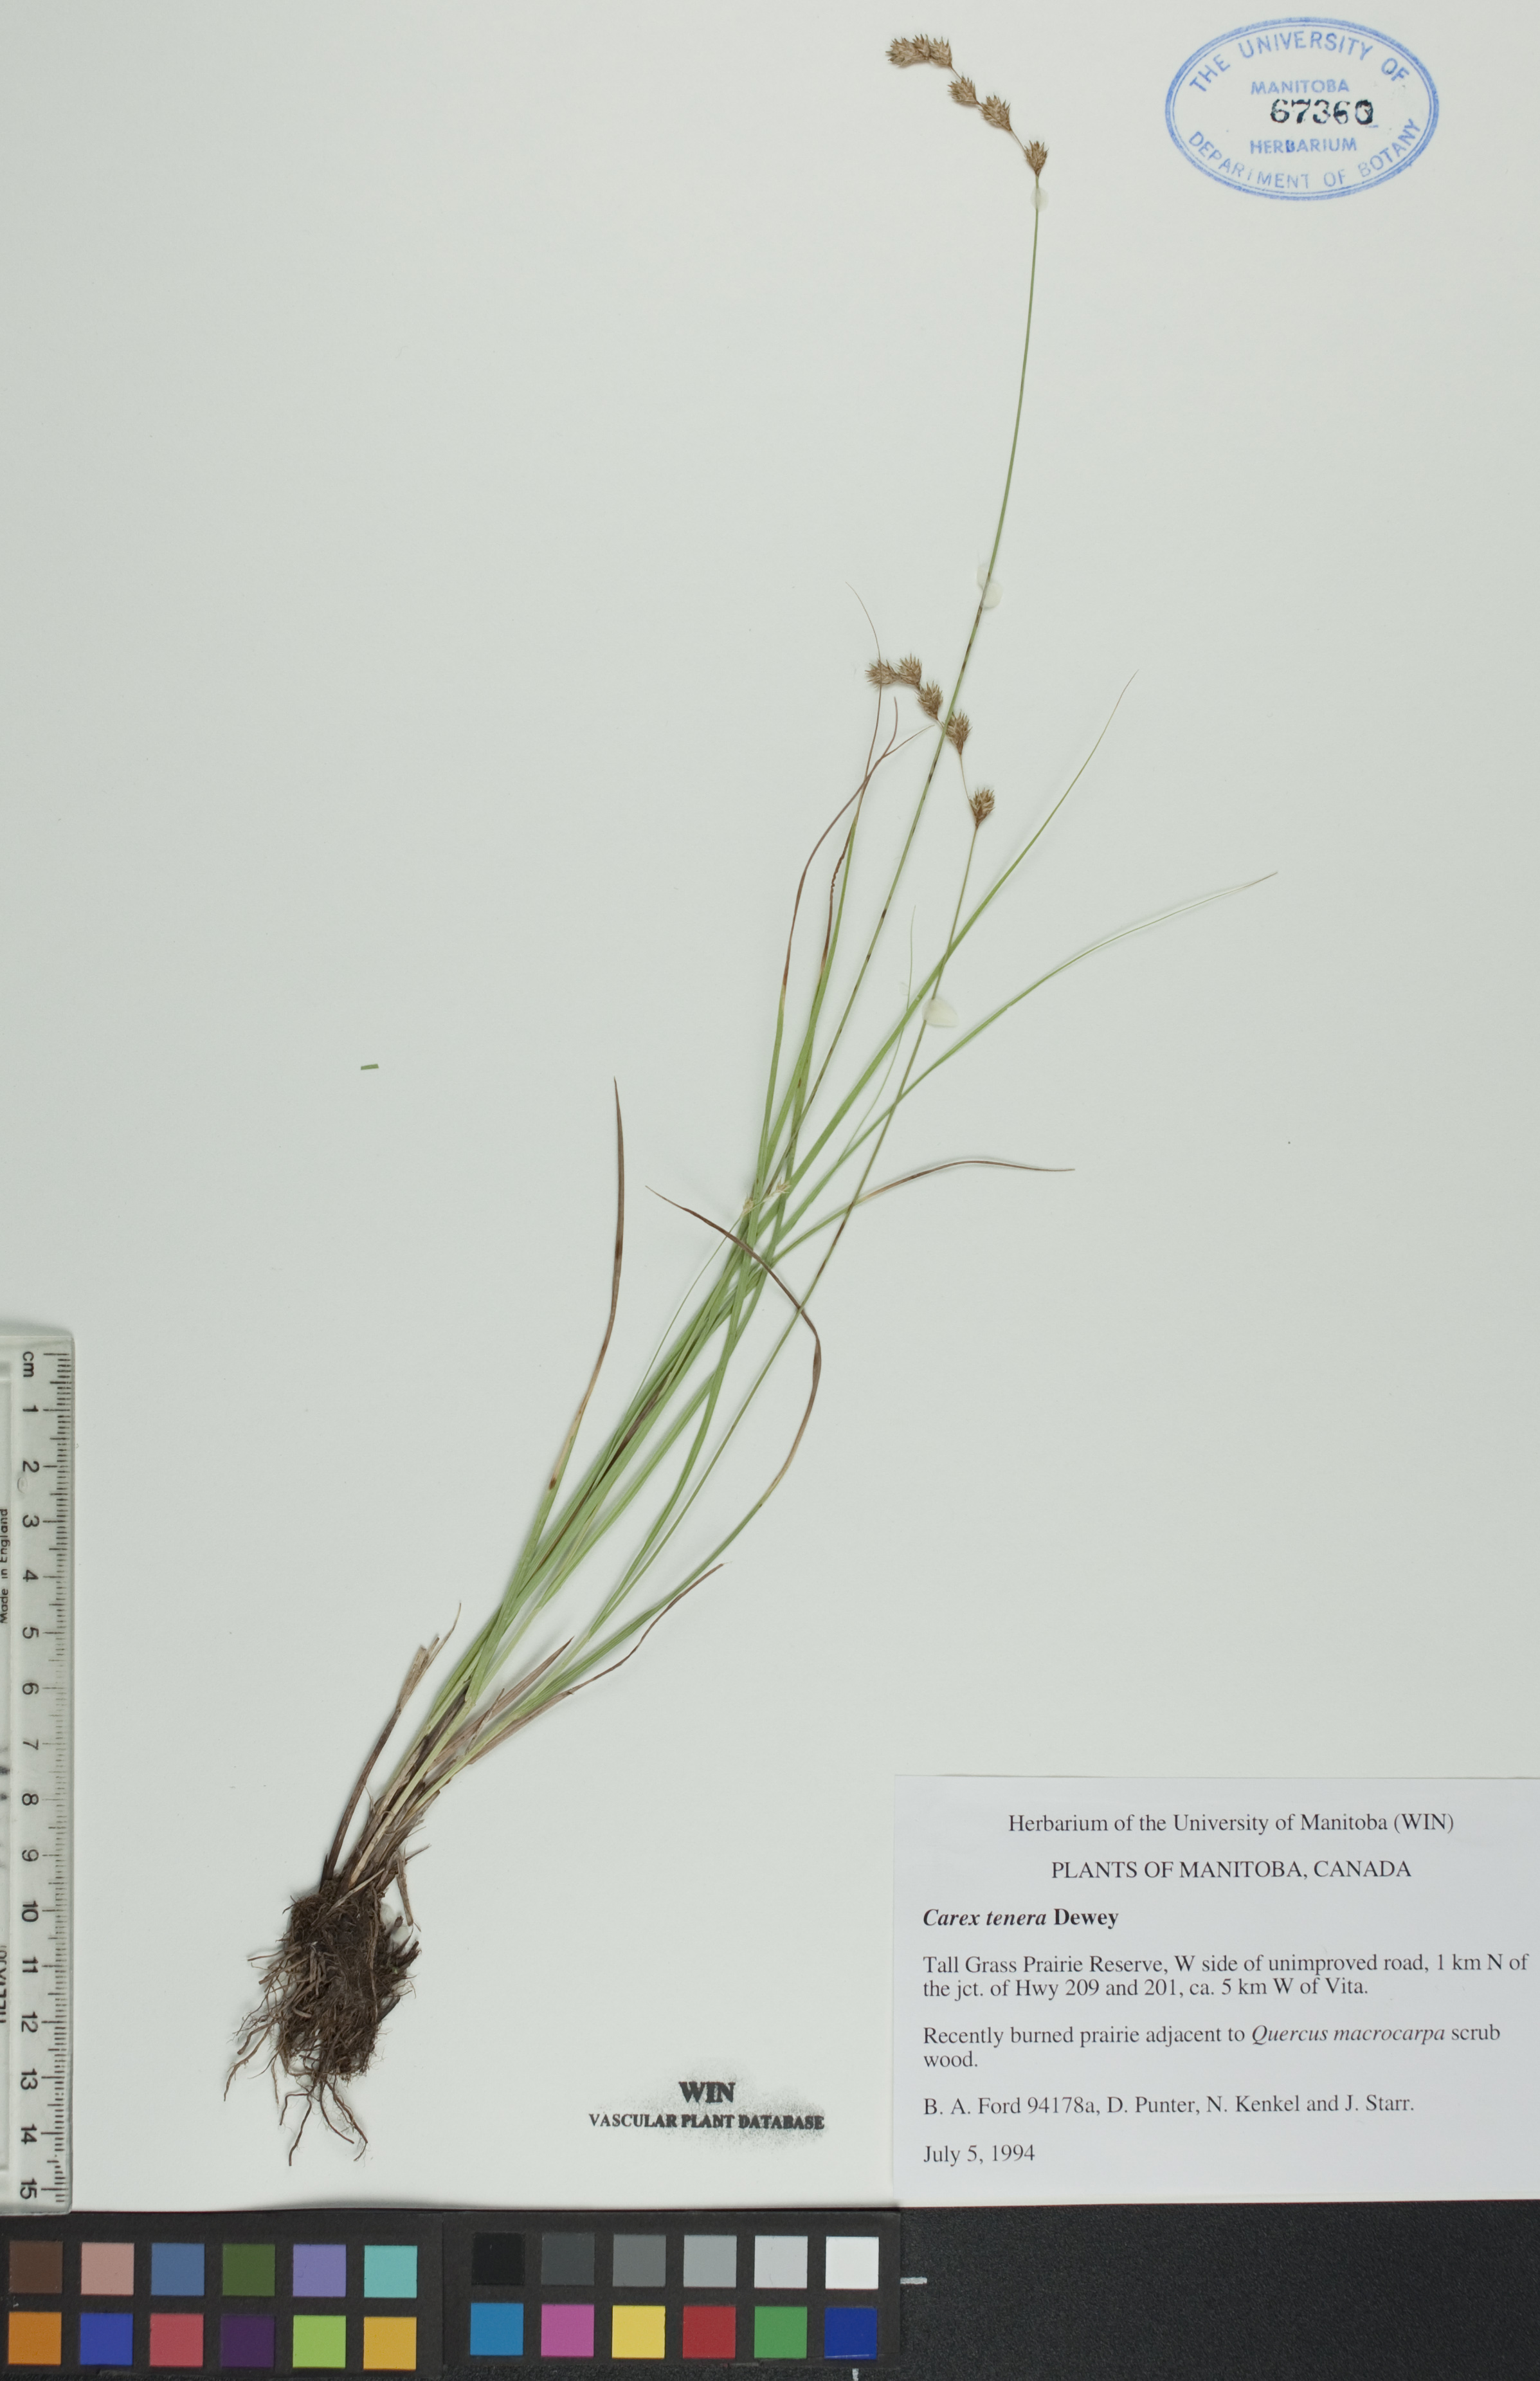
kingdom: Plantae
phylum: Tracheophyta
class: Liliopsida
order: Poales
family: Cyperaceae
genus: Carex
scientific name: Carex tenera
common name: Broad-fruited sedge
